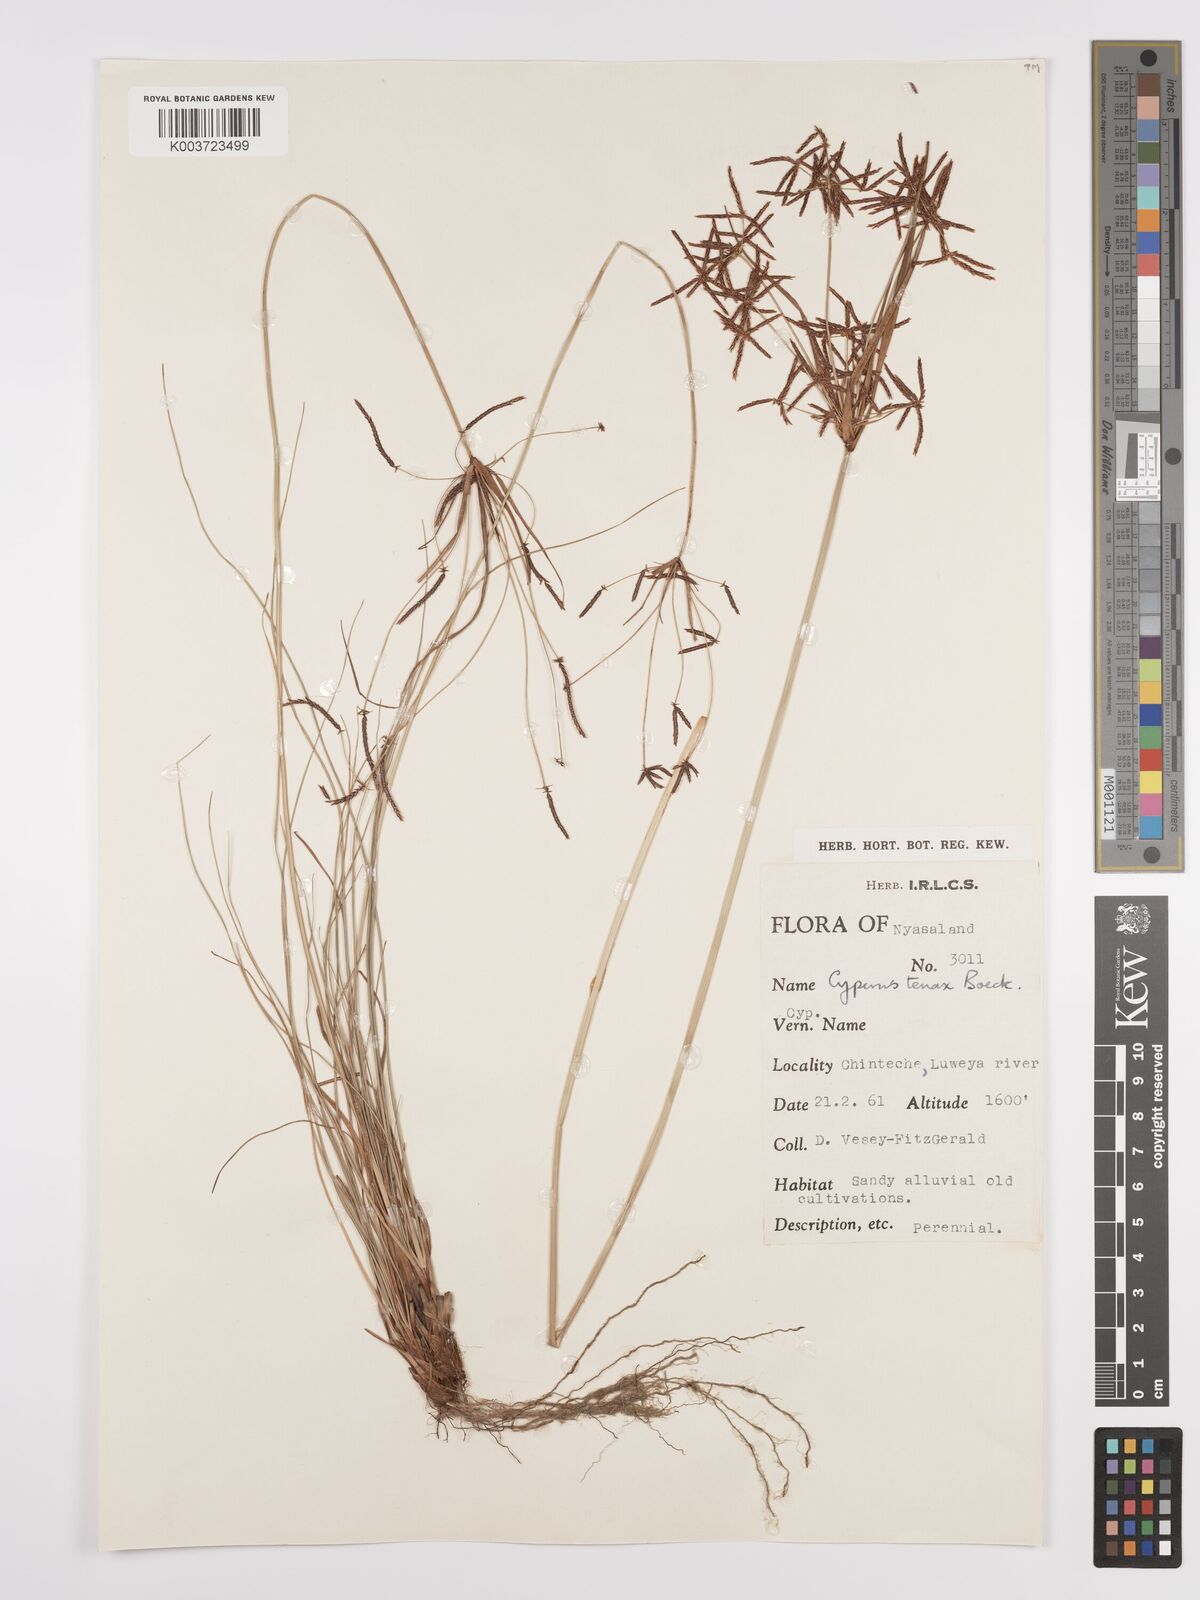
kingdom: Plantae
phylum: Tracheophyta
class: Liliopsida
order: Poales
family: Cyperaceae
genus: Cyperus
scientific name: Cyperus tenax
